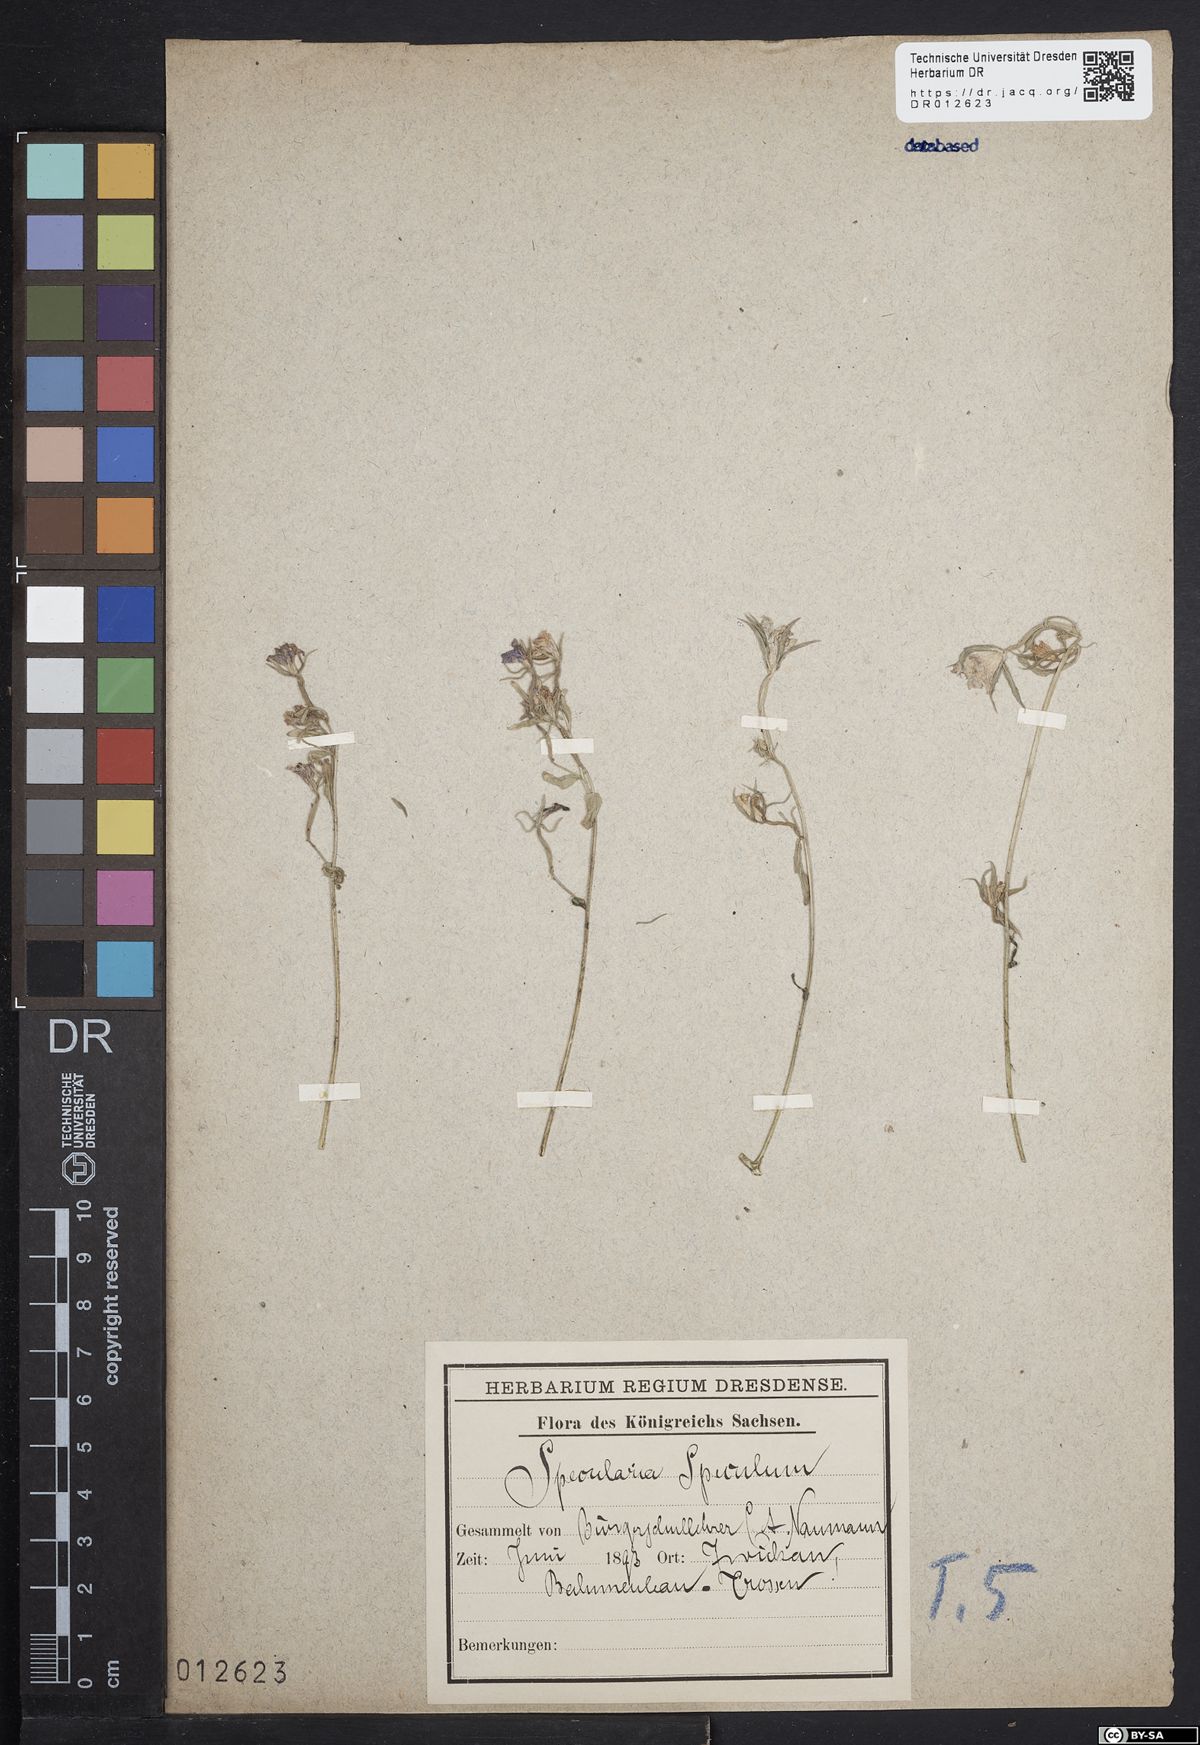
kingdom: Plantae
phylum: Tracheophyta
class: Magnoliopsida
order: Asterales
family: Campanulaceae
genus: Legousia
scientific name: Legousia speculum-veneris
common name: Large venus's-looking-glass
